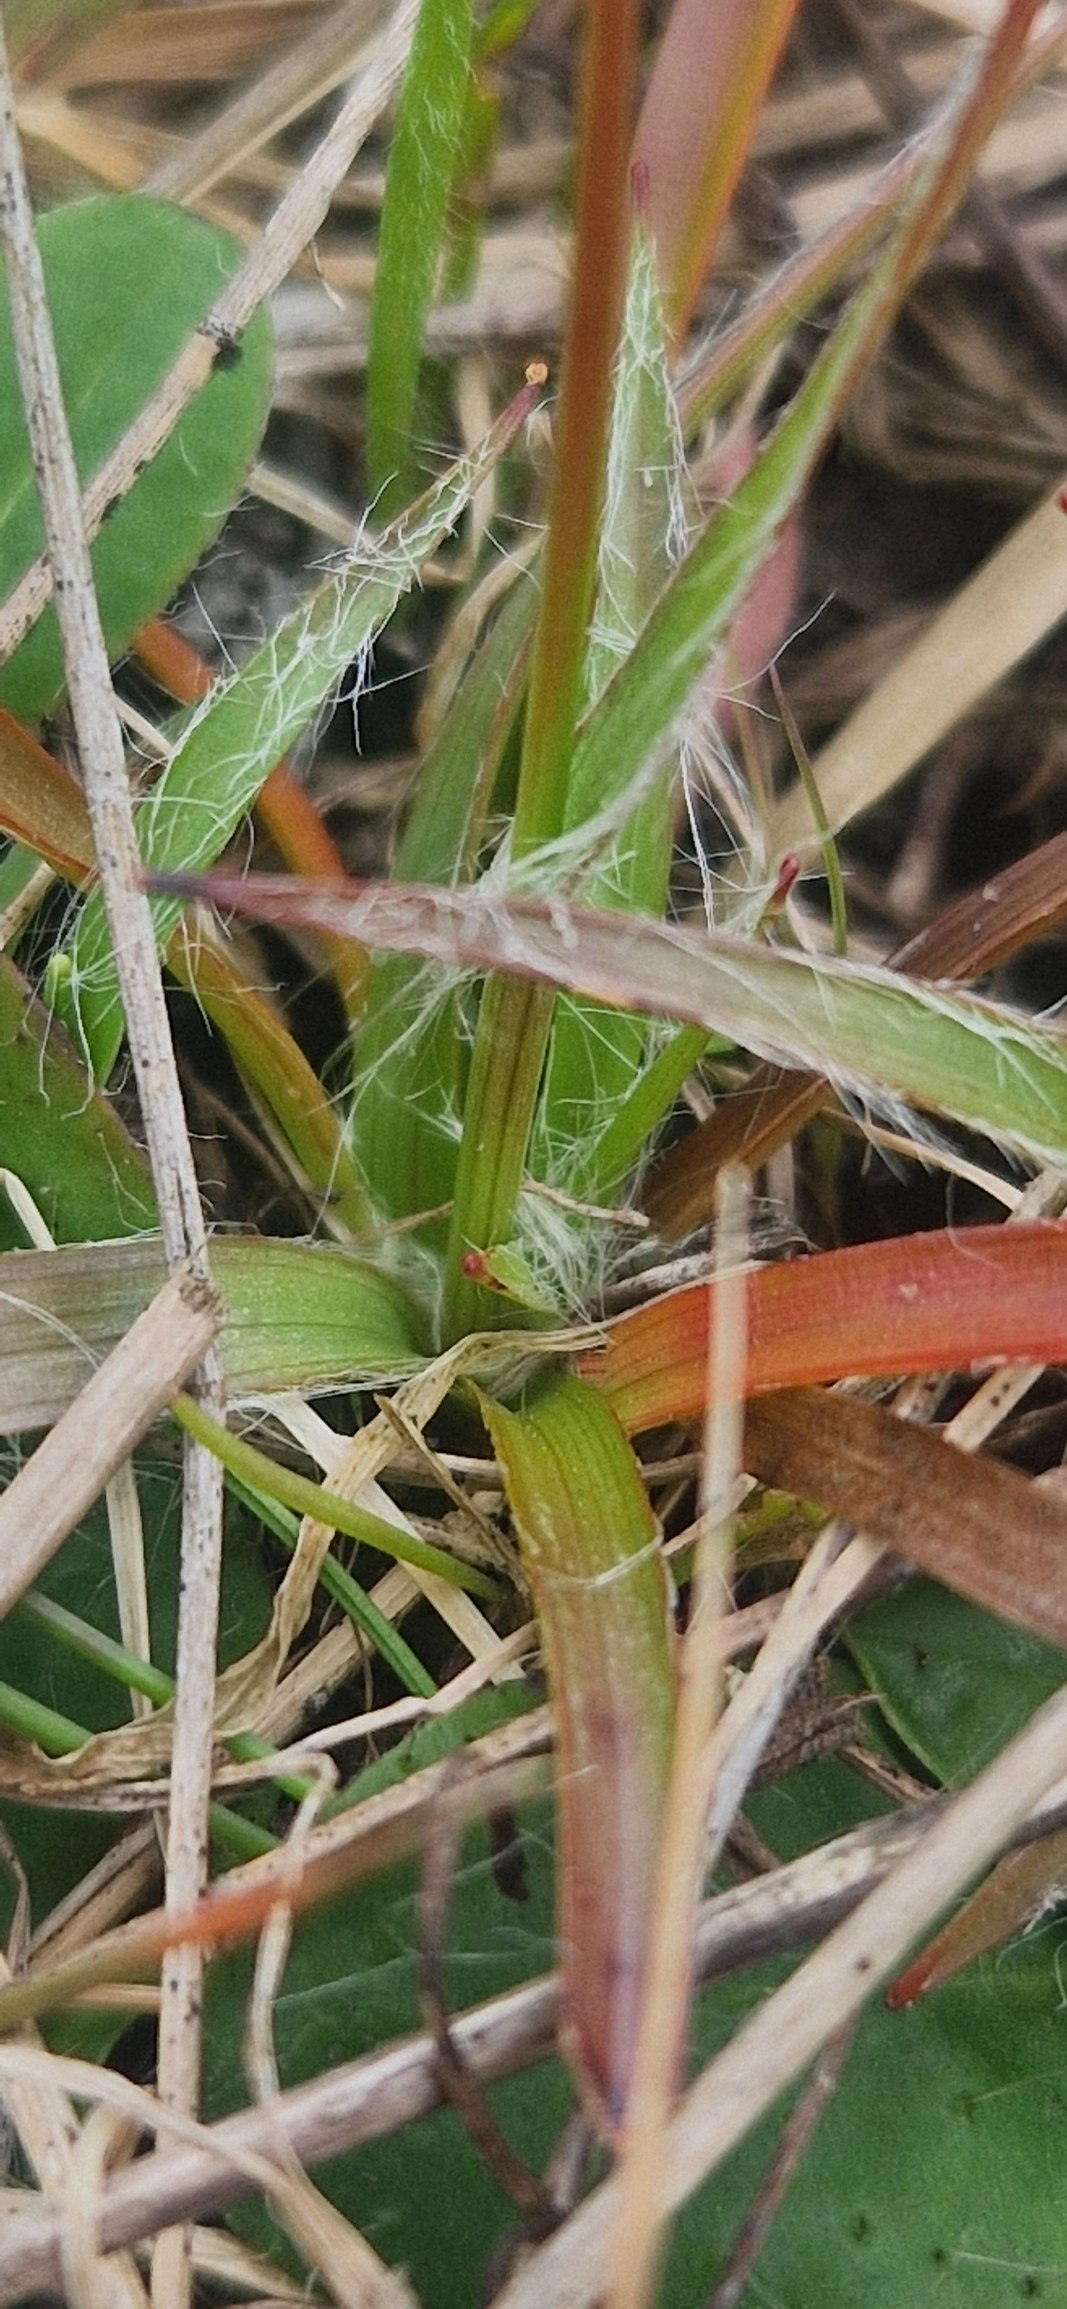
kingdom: Plantae
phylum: Tracheophyta
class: Liliopsida
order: Poales
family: Juncaceae
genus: Luzula
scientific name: Luzula campestris
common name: Mark-frytle
